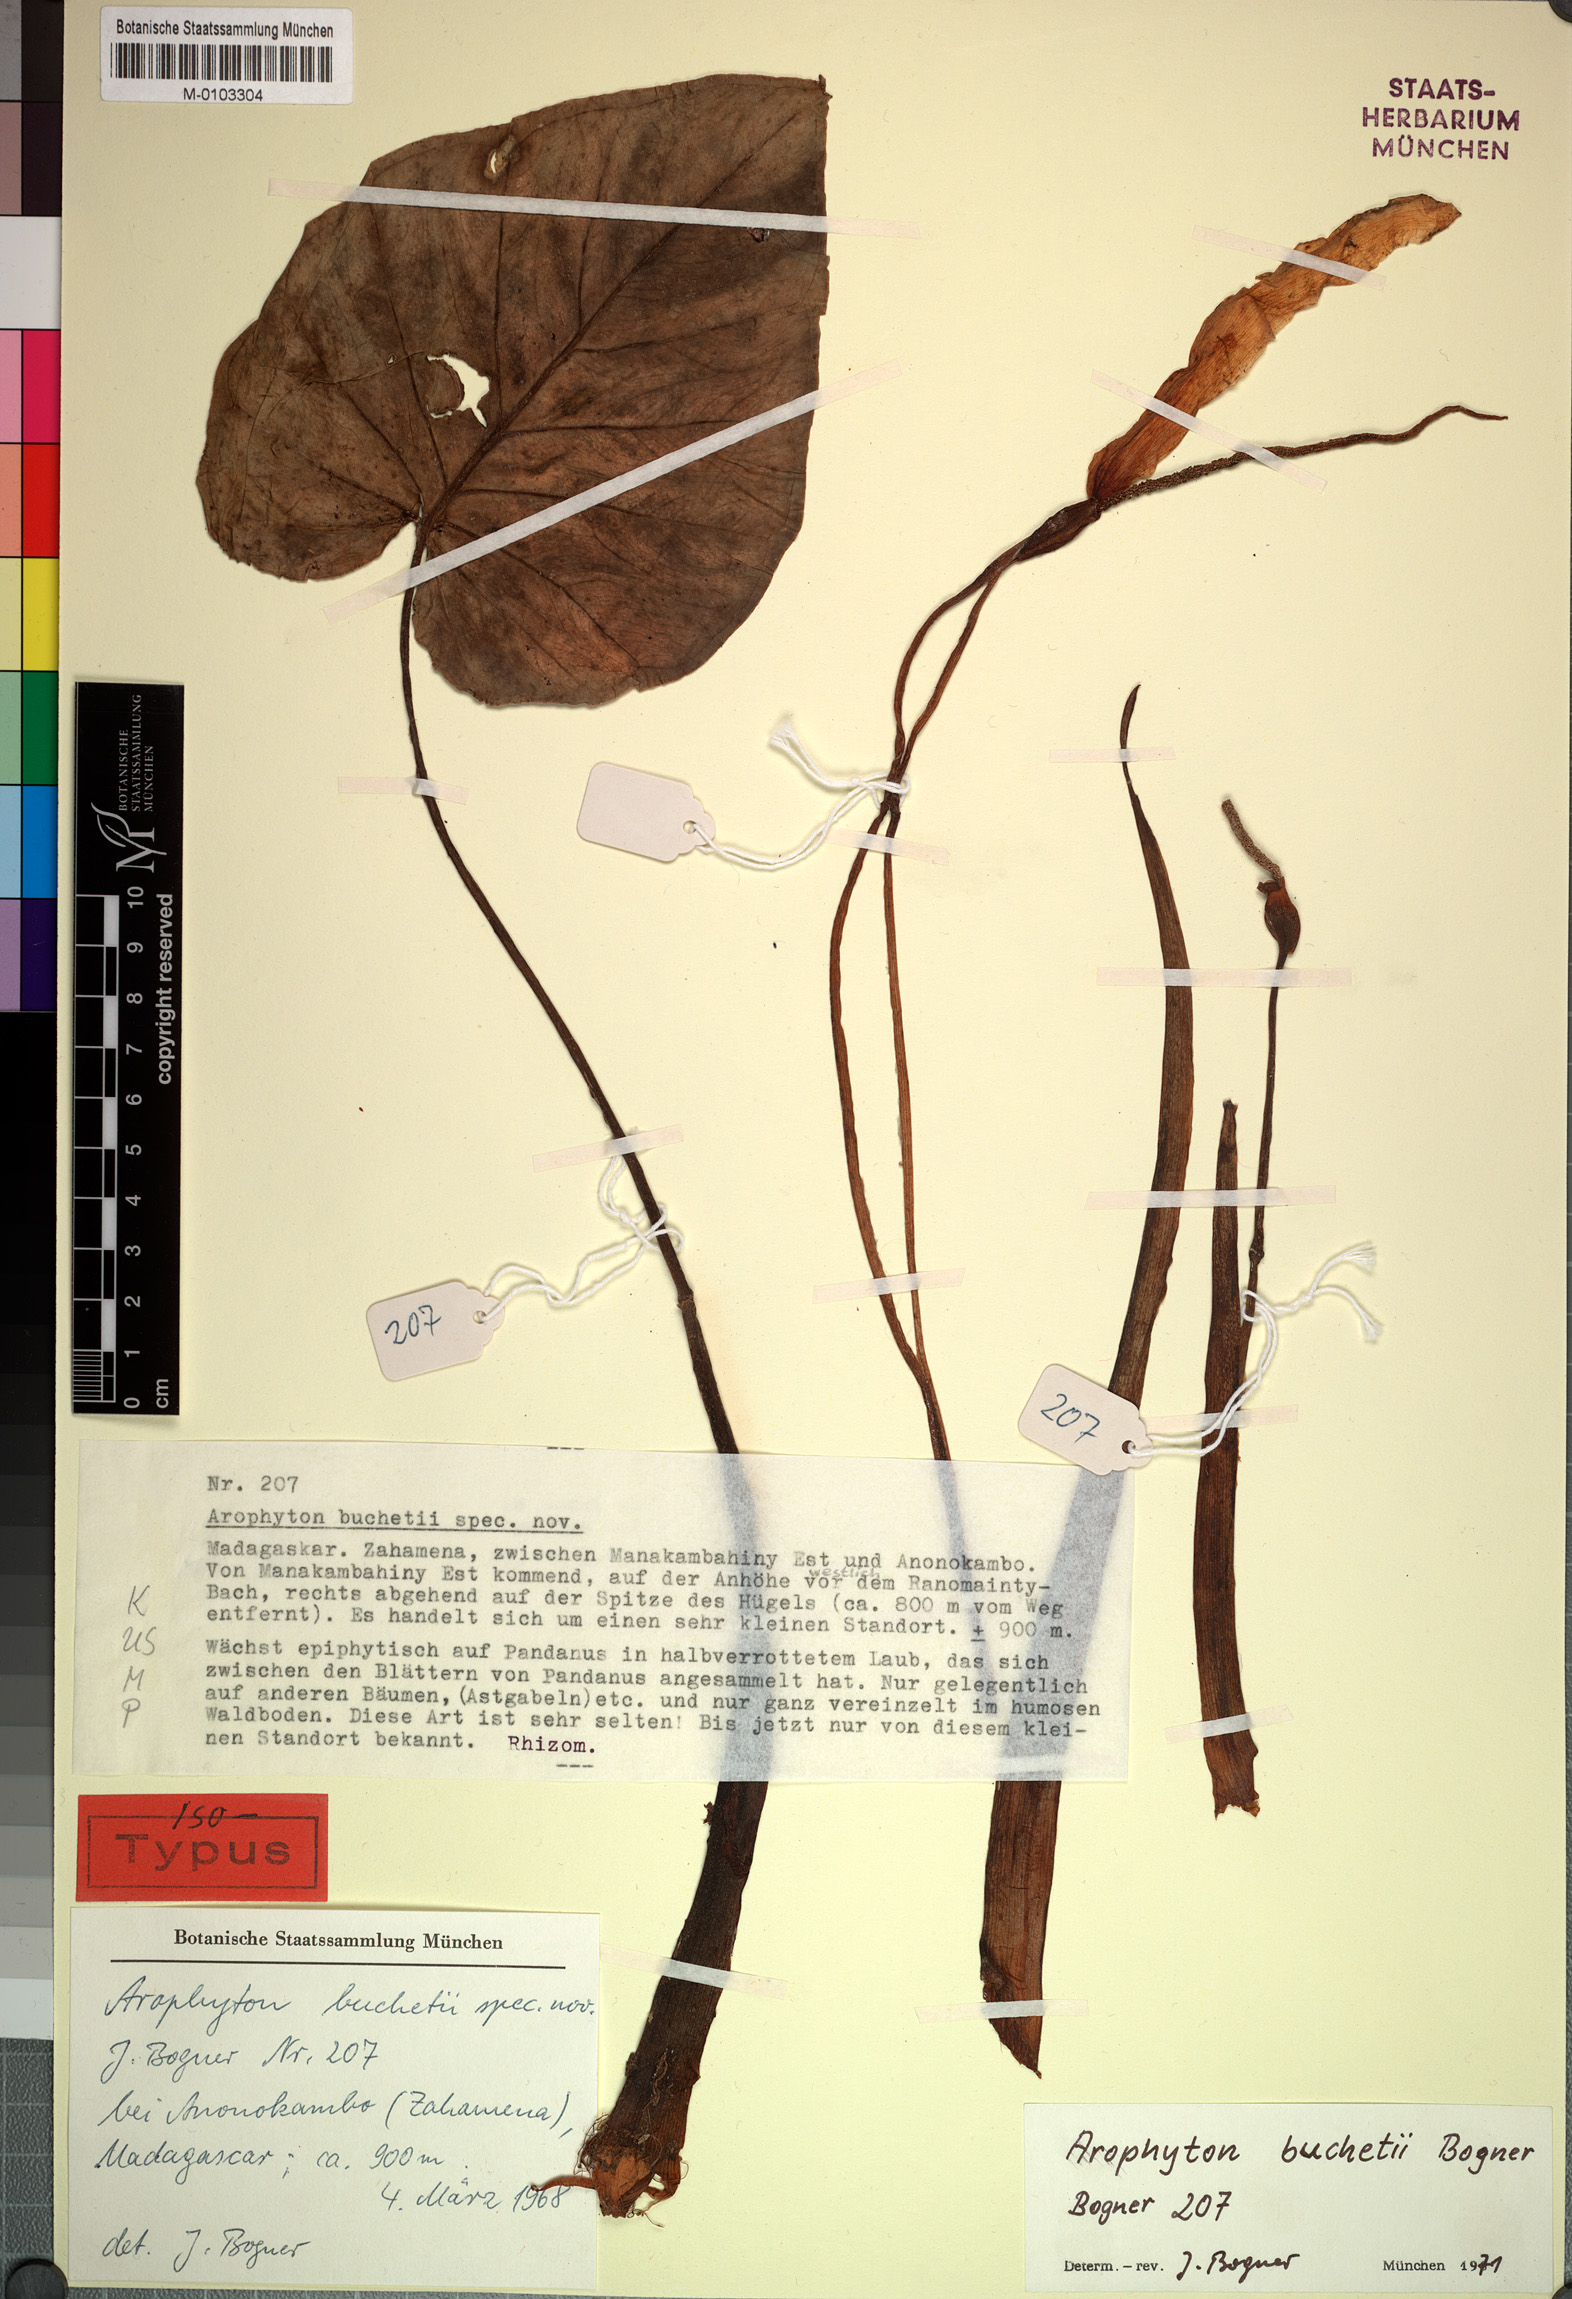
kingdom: Plantae
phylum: Tracheophyta
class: Liliopsida
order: Alismatales
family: Araceae
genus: Arophyton
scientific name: Arophyton buchetii
